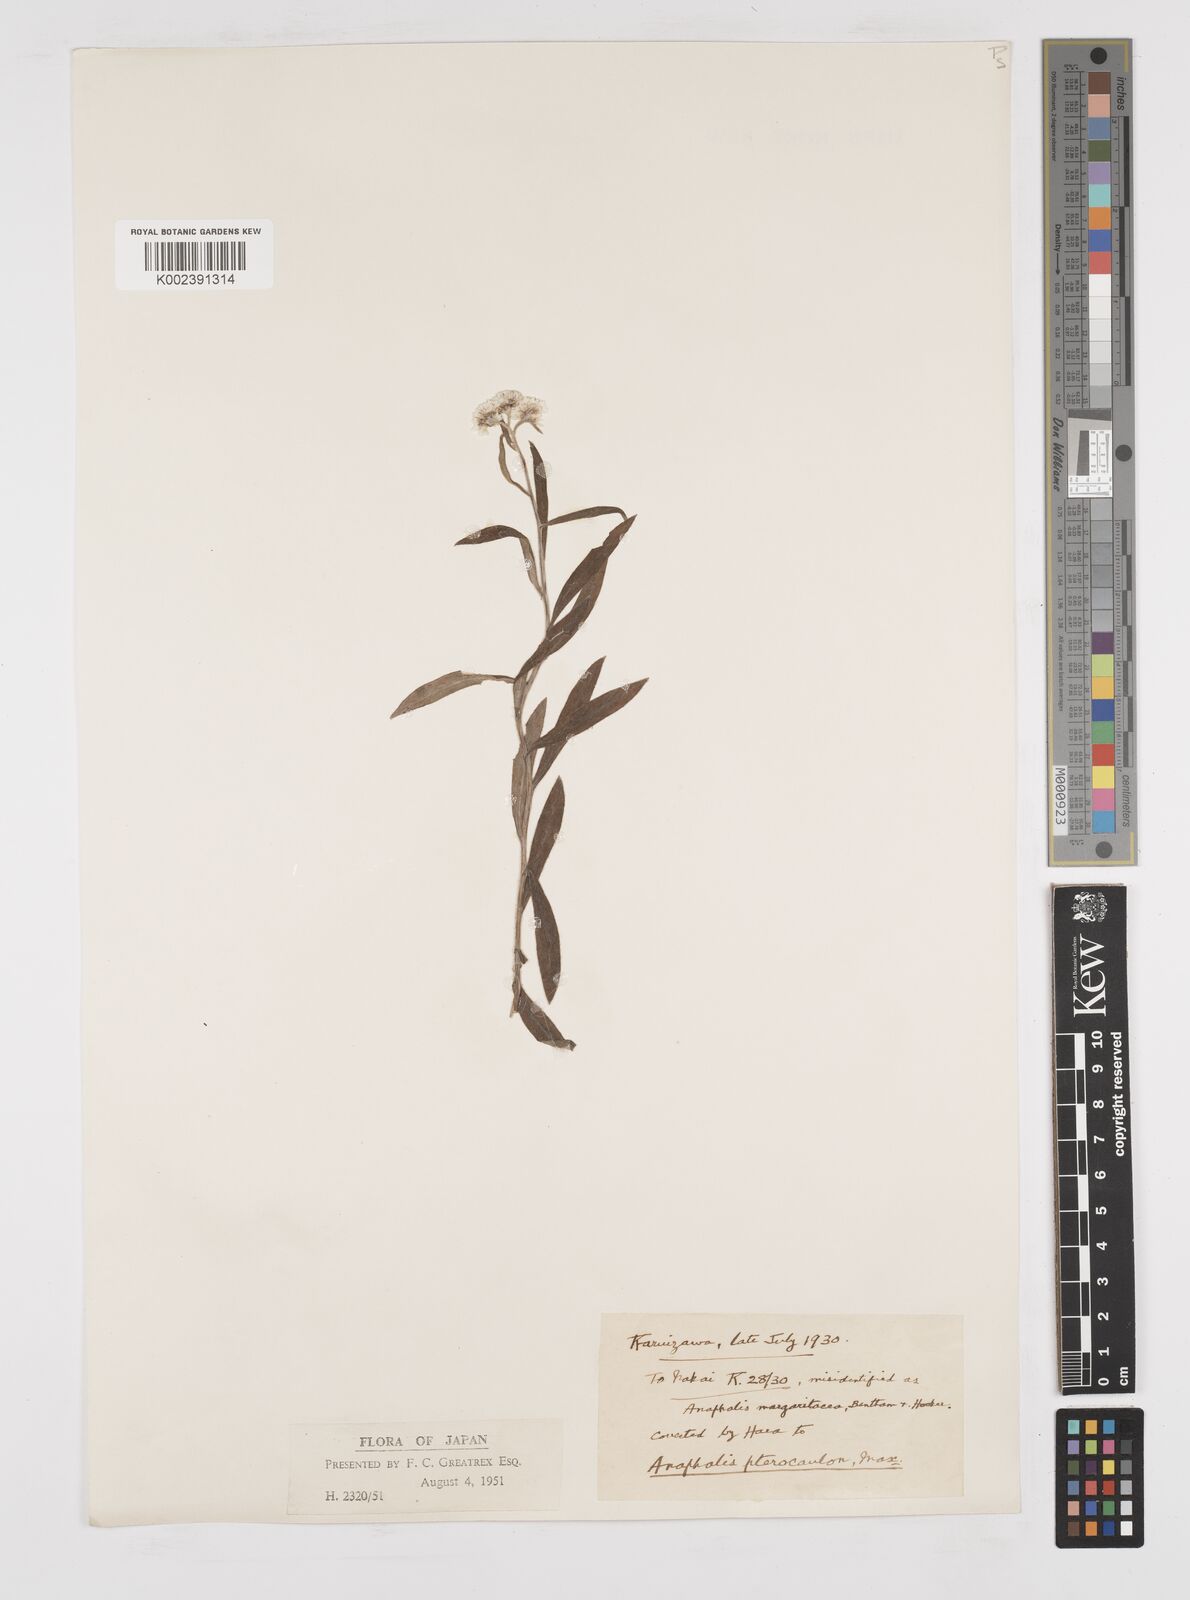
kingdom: Plantae
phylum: Tracheophyta
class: Magnoliopsida
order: Asterales
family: Asteraceae
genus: Anaphalis
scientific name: Anaphalis sinica
